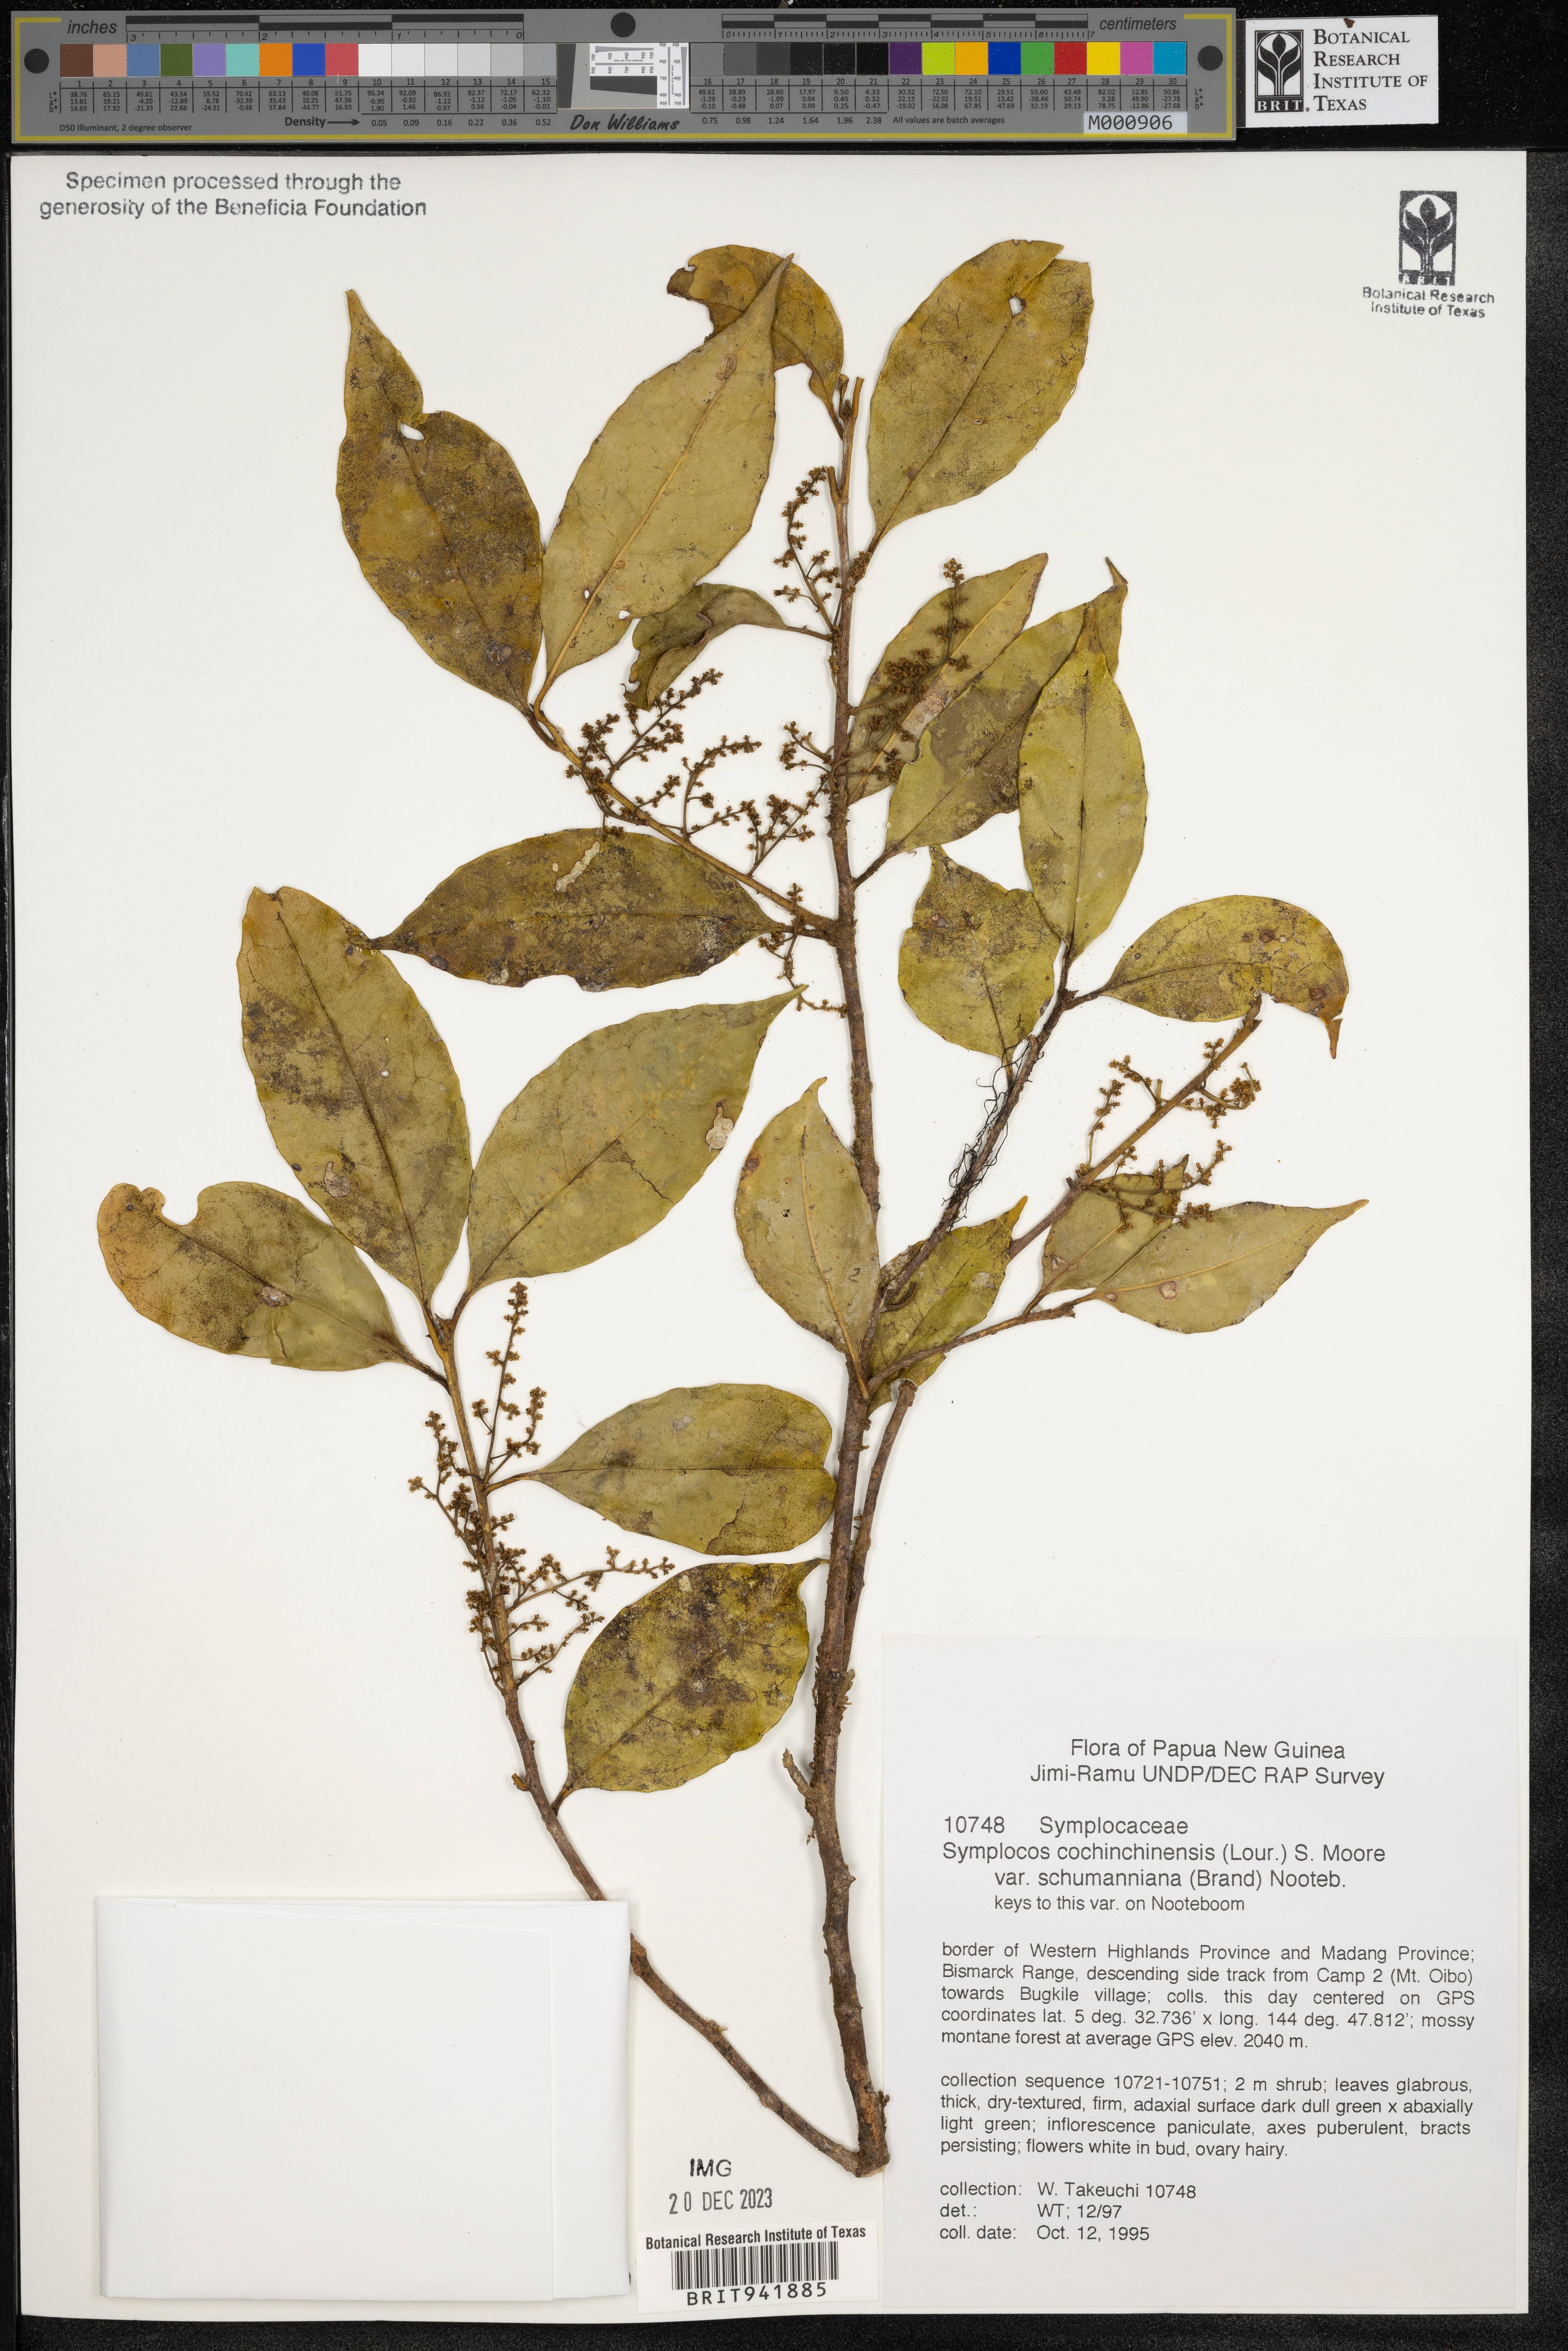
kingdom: Plantae
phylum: Tracheophyta
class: Magnoliopsida
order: Ericales
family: Symplocaceae
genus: Symplocos
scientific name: Symplocos cochinchinensis
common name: Buff hazelwood
